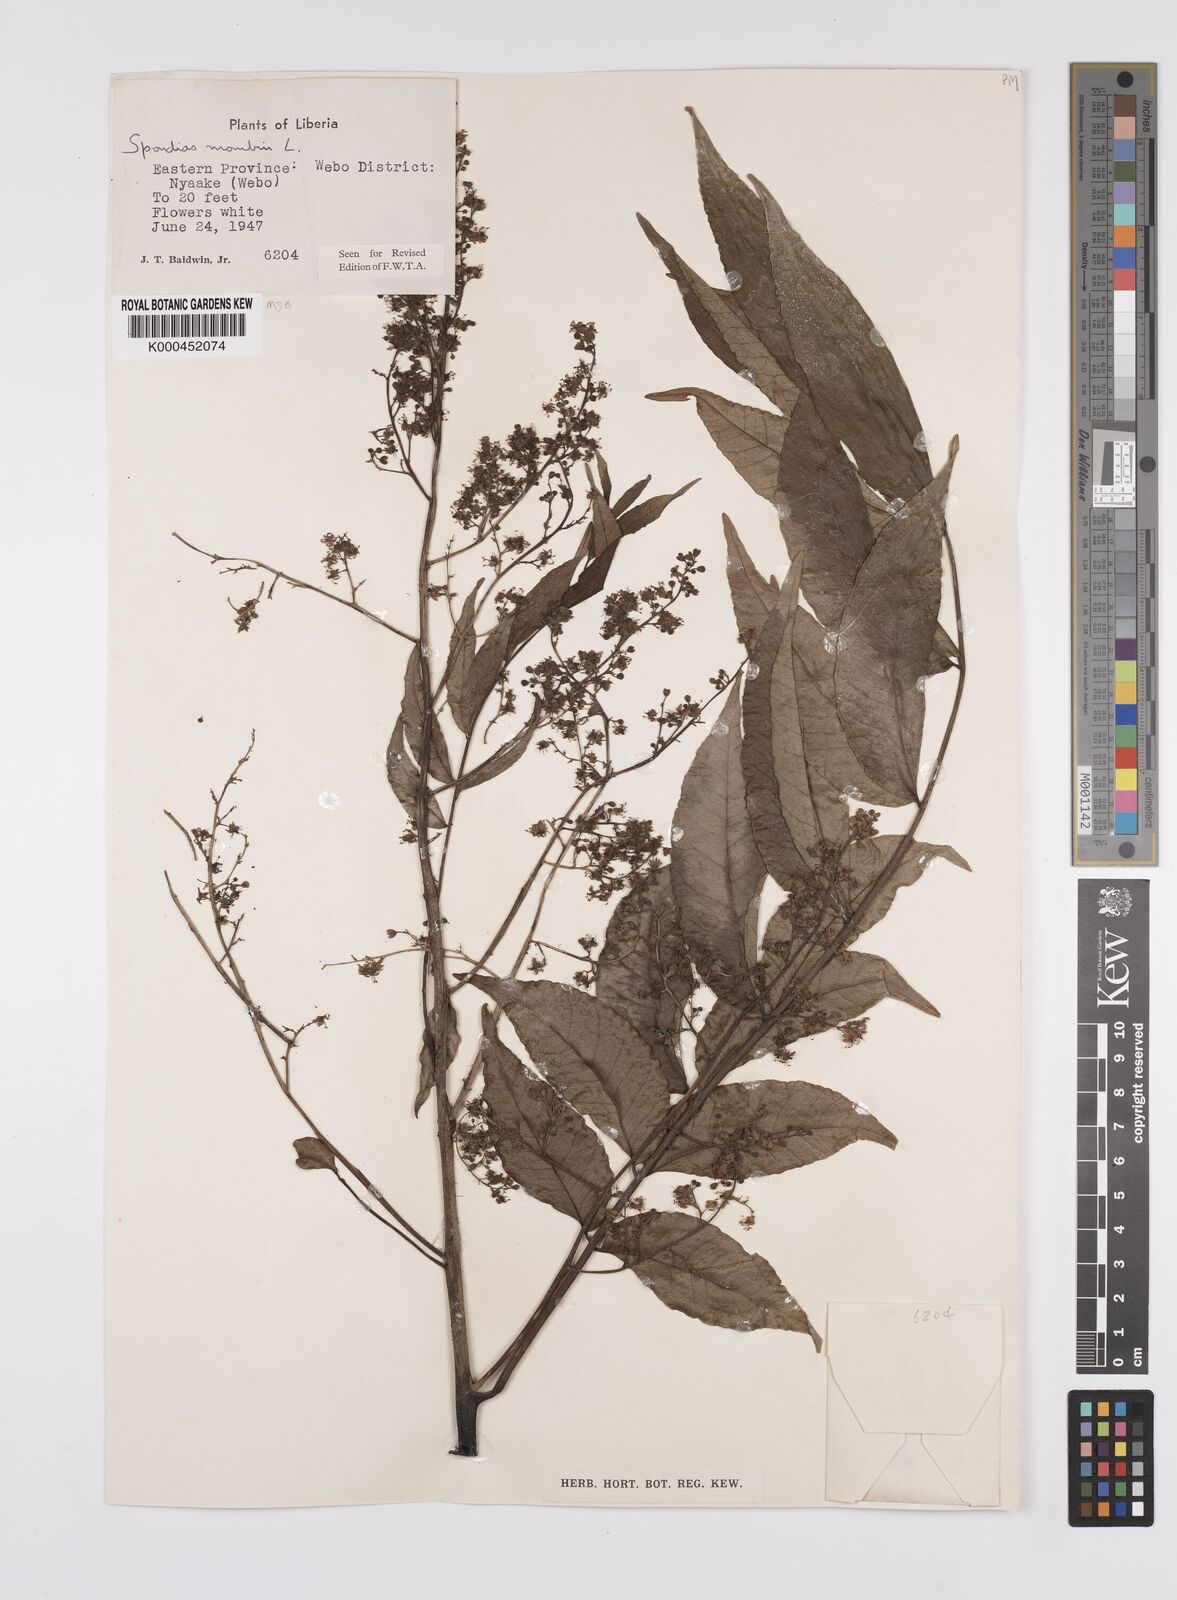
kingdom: Plantae
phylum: Tracheophyta
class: Magnoliopsida
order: Sapindales
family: Anacardiaceae
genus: Spondias
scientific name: Spondias mombin
